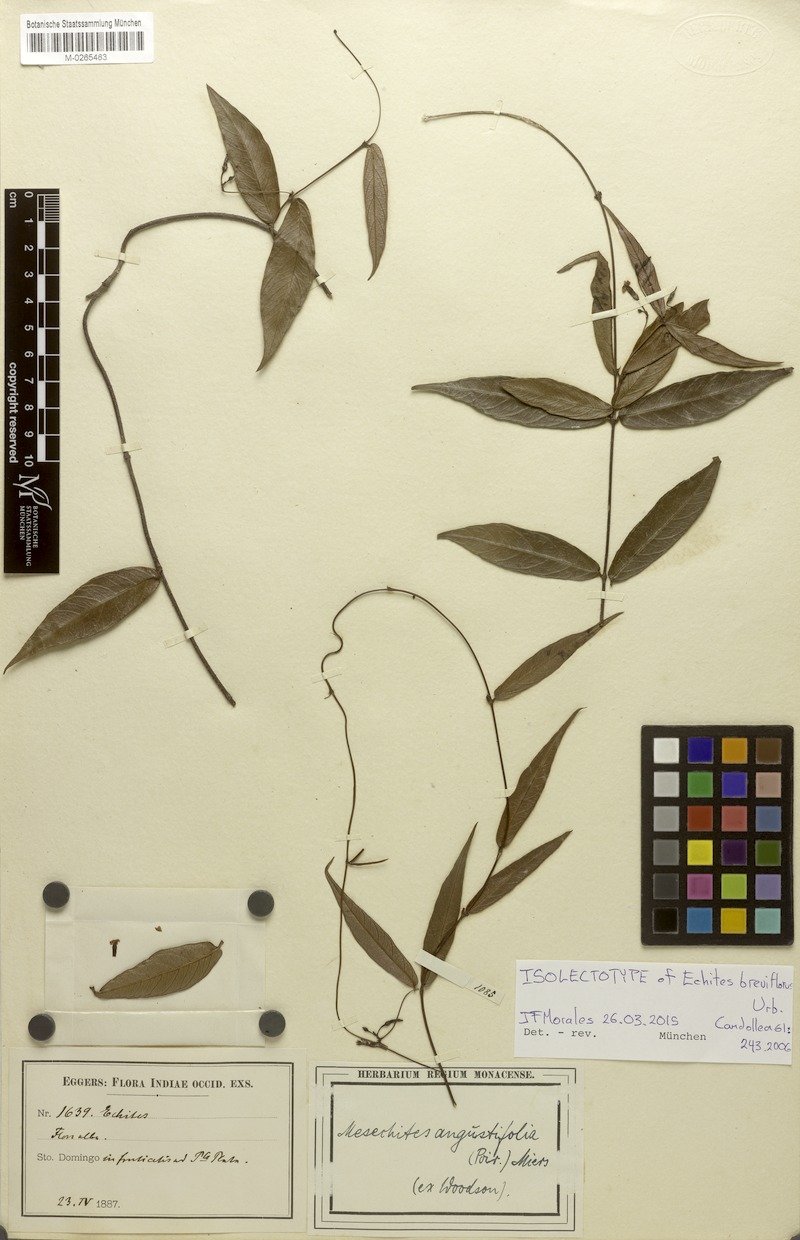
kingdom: Plantae
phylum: Tracheophyta
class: Magnoliopsida
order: Gentianales
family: Apocynaceae
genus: Mesechites
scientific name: Mesechites angustifolius
